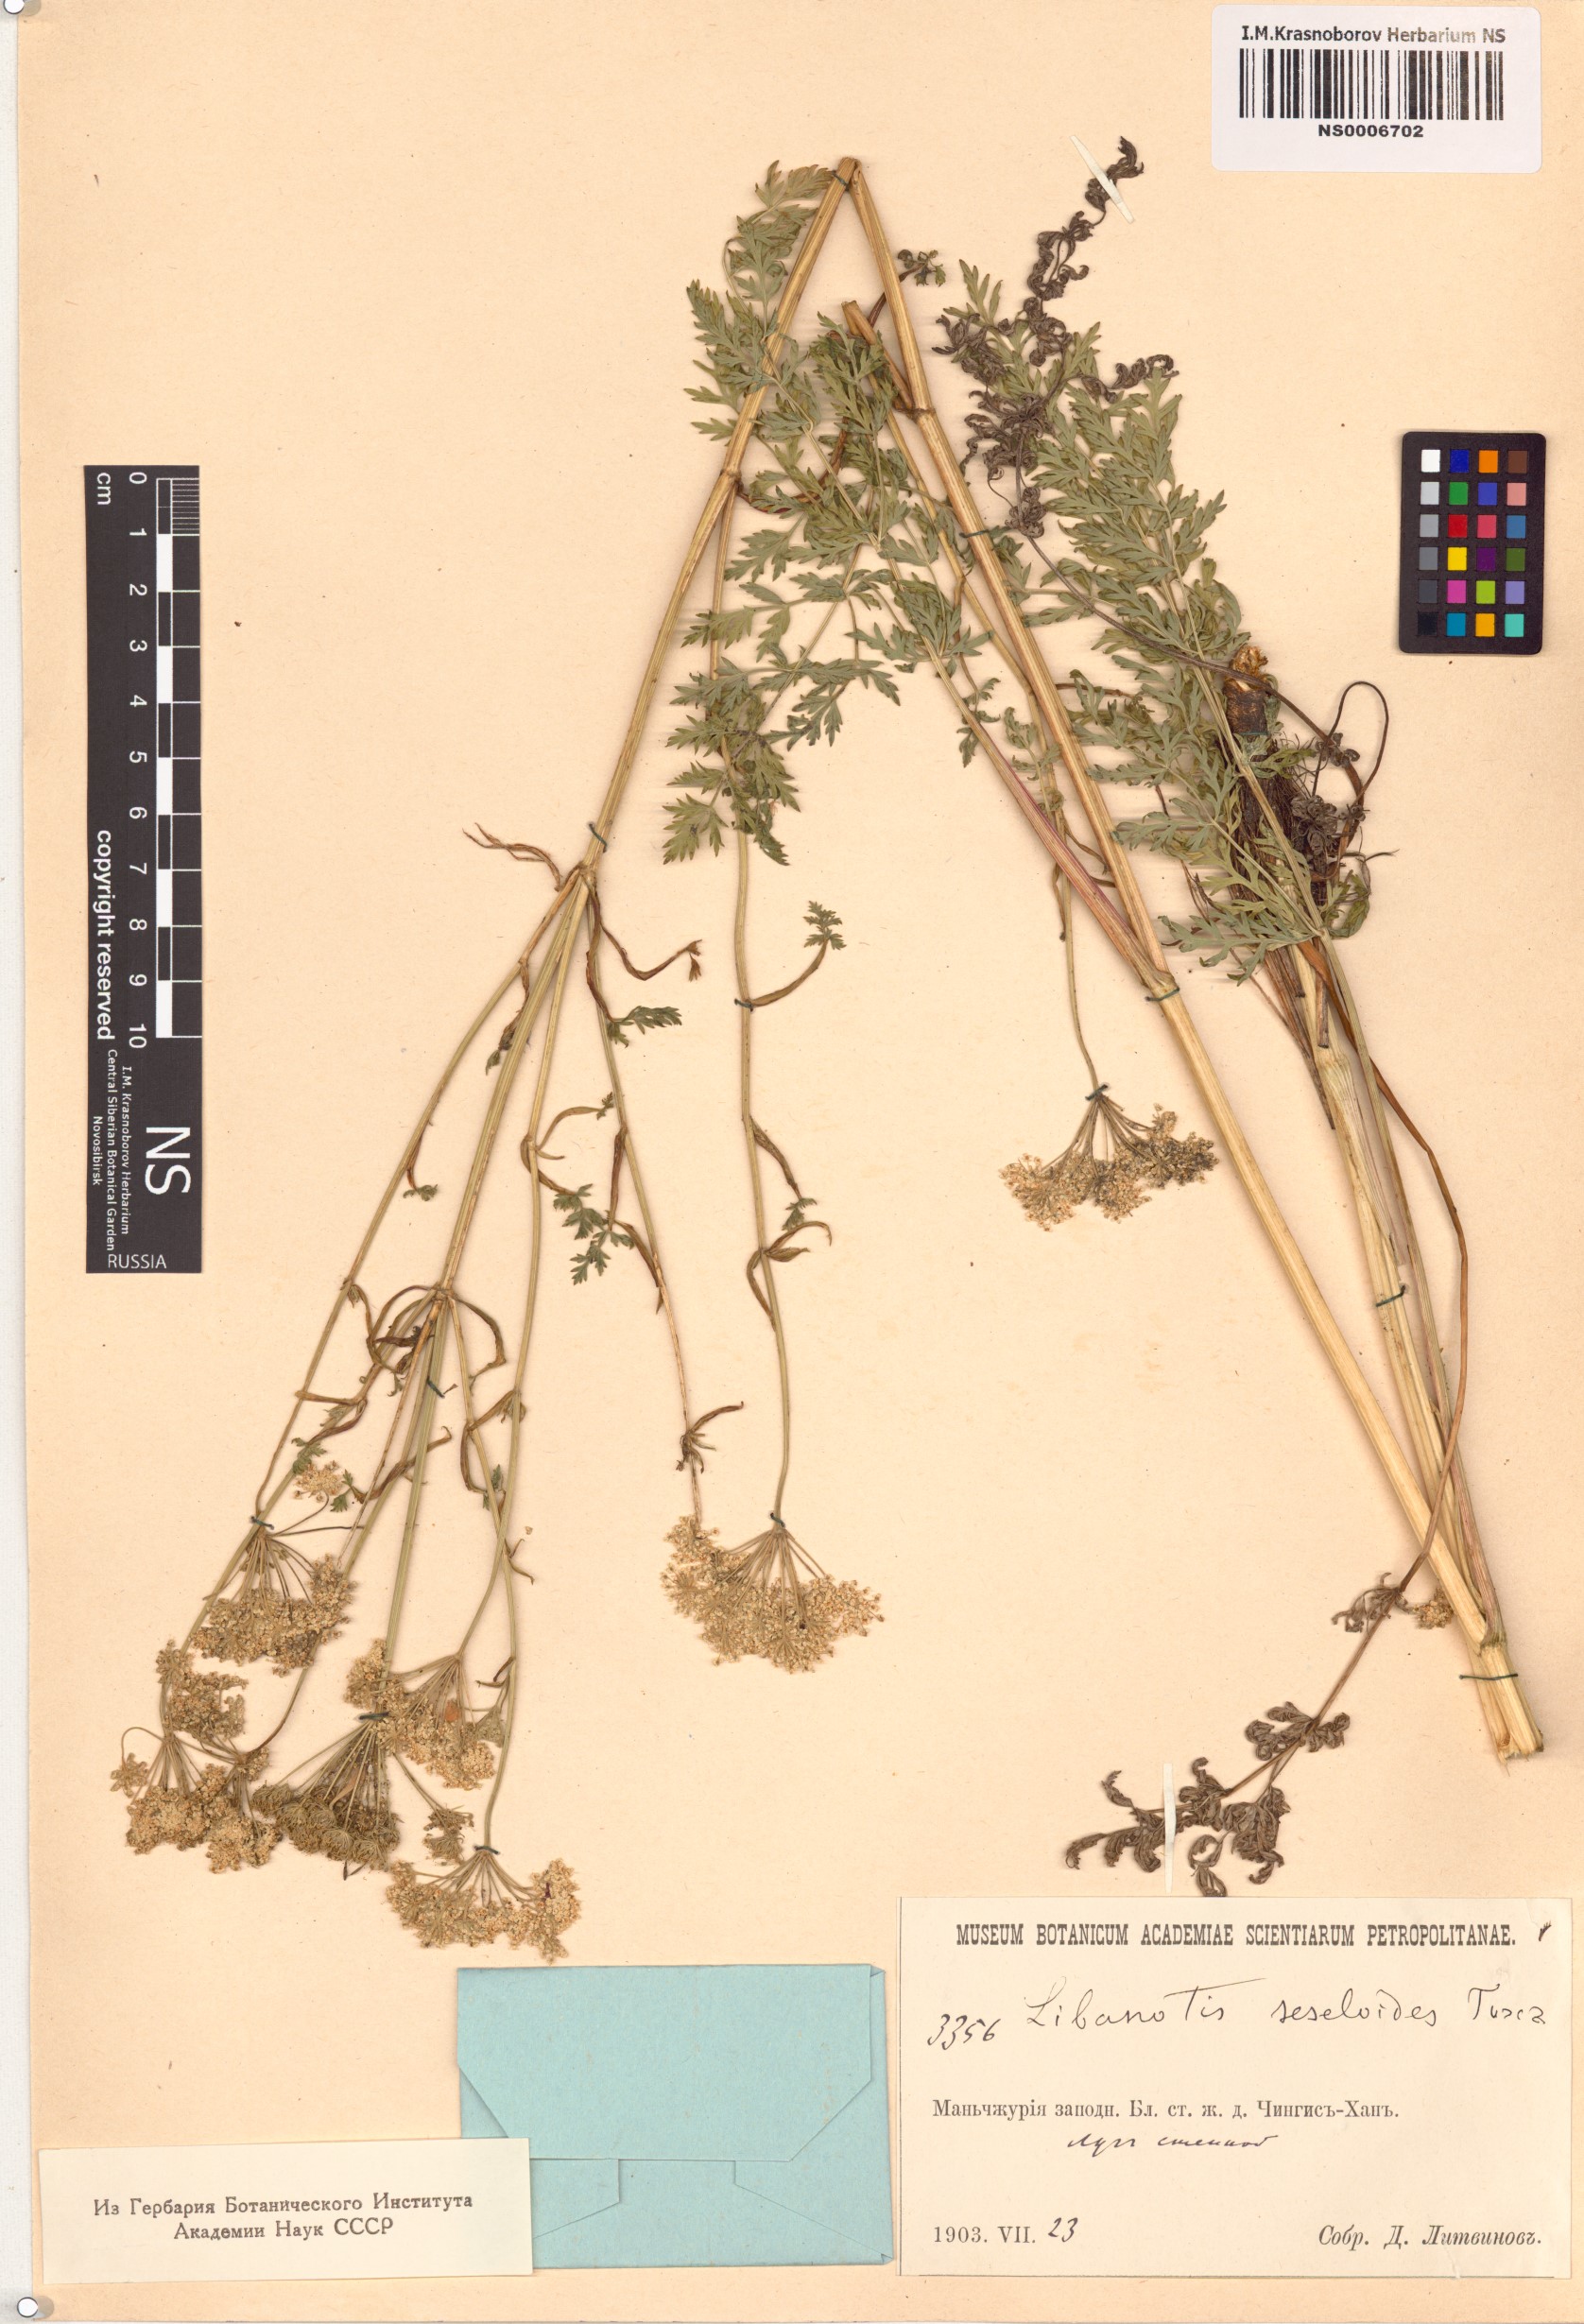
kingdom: Plantae
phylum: Tracheophyta
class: Magnoliopsida
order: Apiales
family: Apiaceae
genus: Seseli
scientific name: Seseli seseloides
